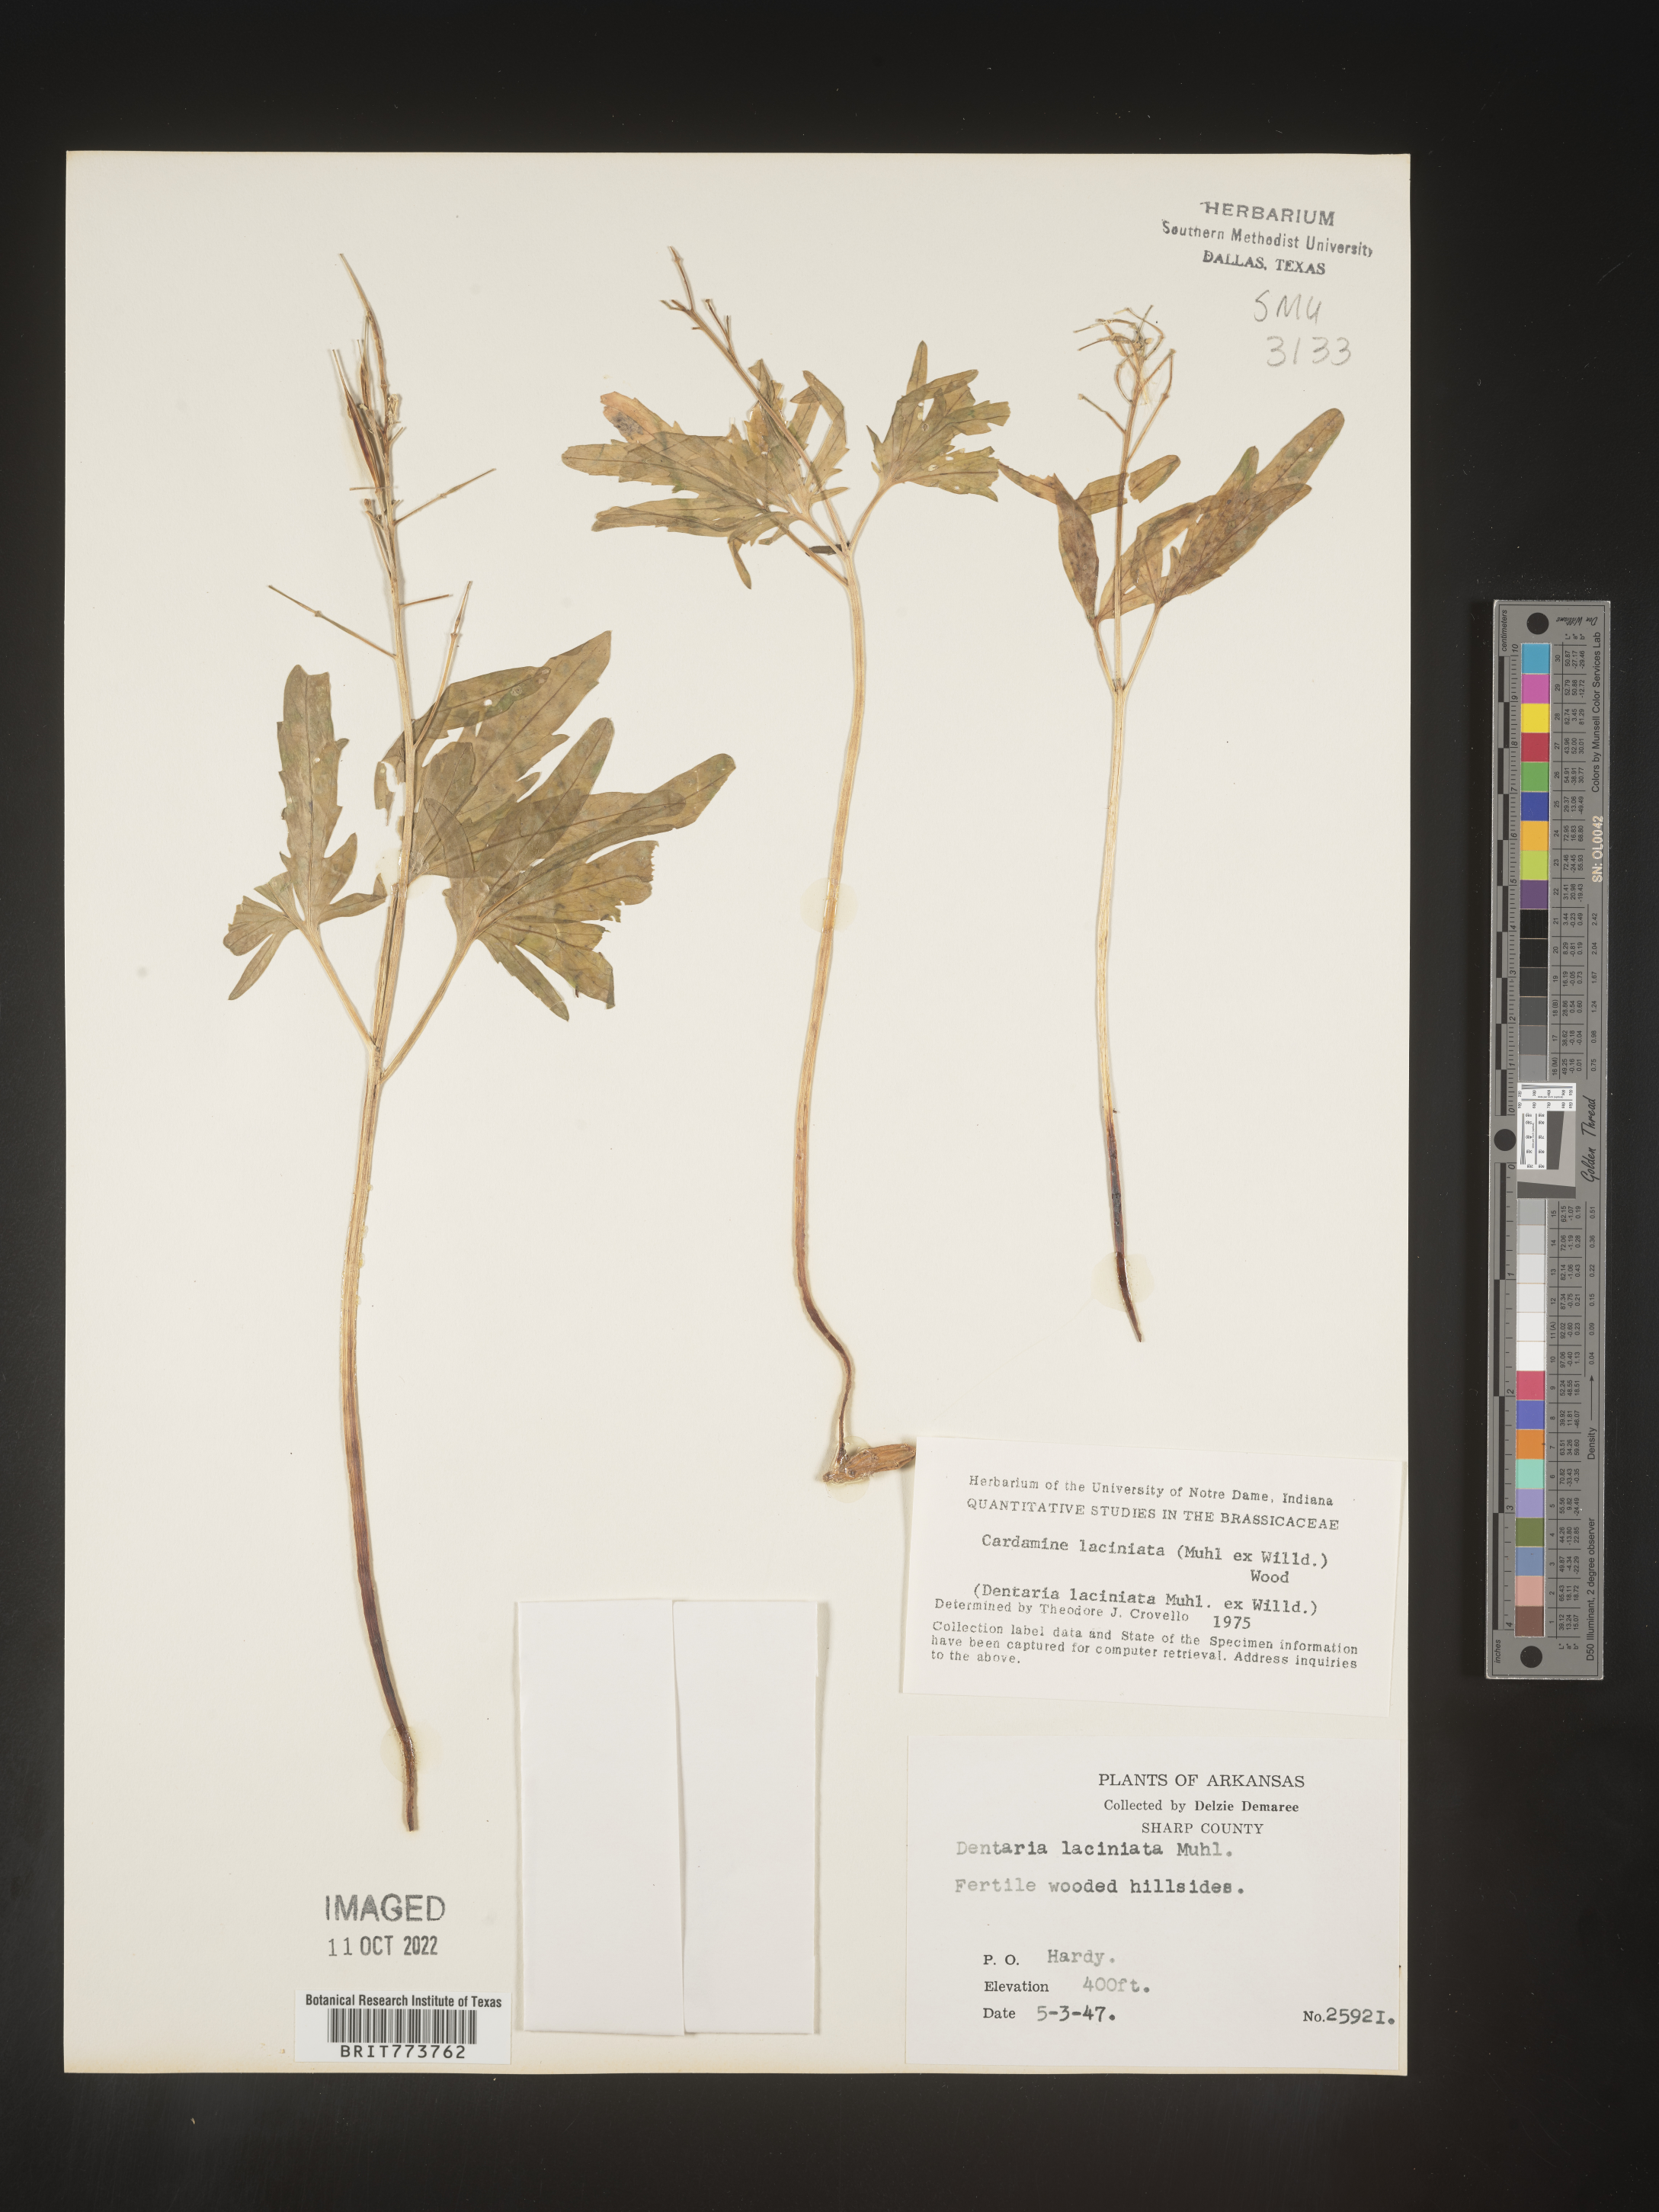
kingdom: Plantae
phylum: Tracheophyta
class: Magnoliopsida
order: Brassicales
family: Brassicaceae
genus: Rorippa
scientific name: Rorippa laciniata
